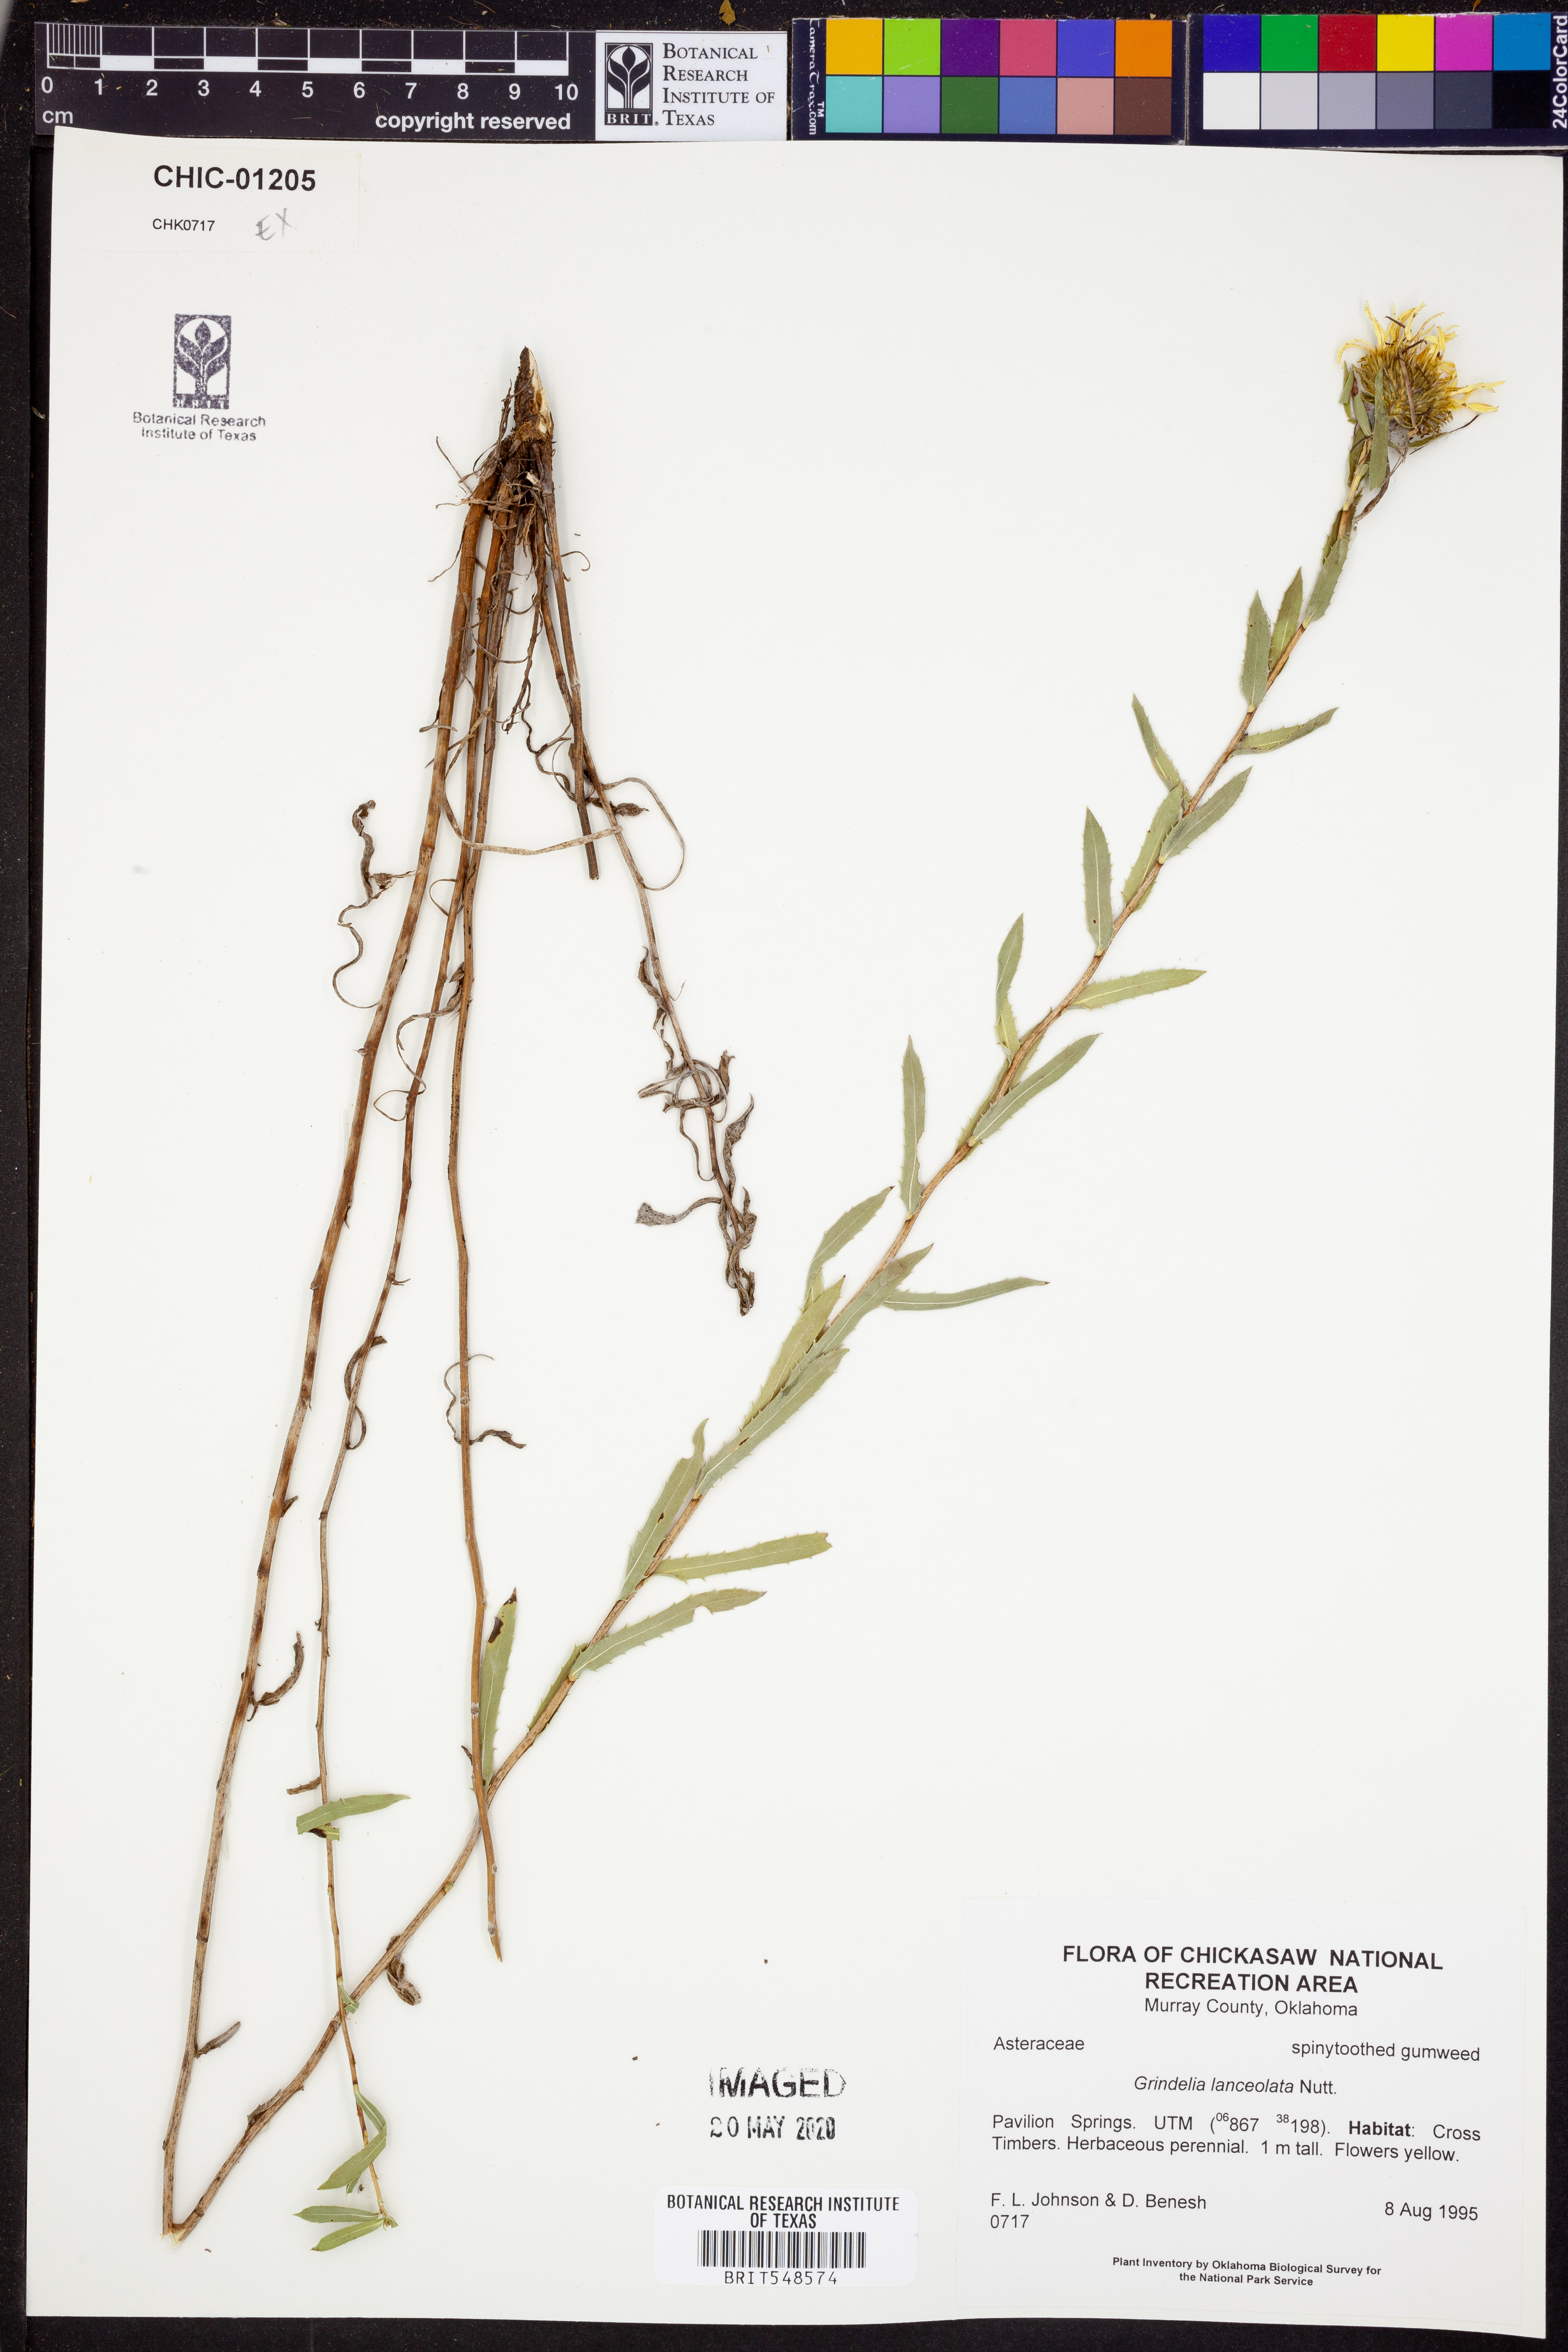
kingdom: Plantae
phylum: Tracheophyta
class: Magnoliopsida
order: Asterales
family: Asteraceae
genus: Grindelia
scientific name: Grindelia lanceolata
